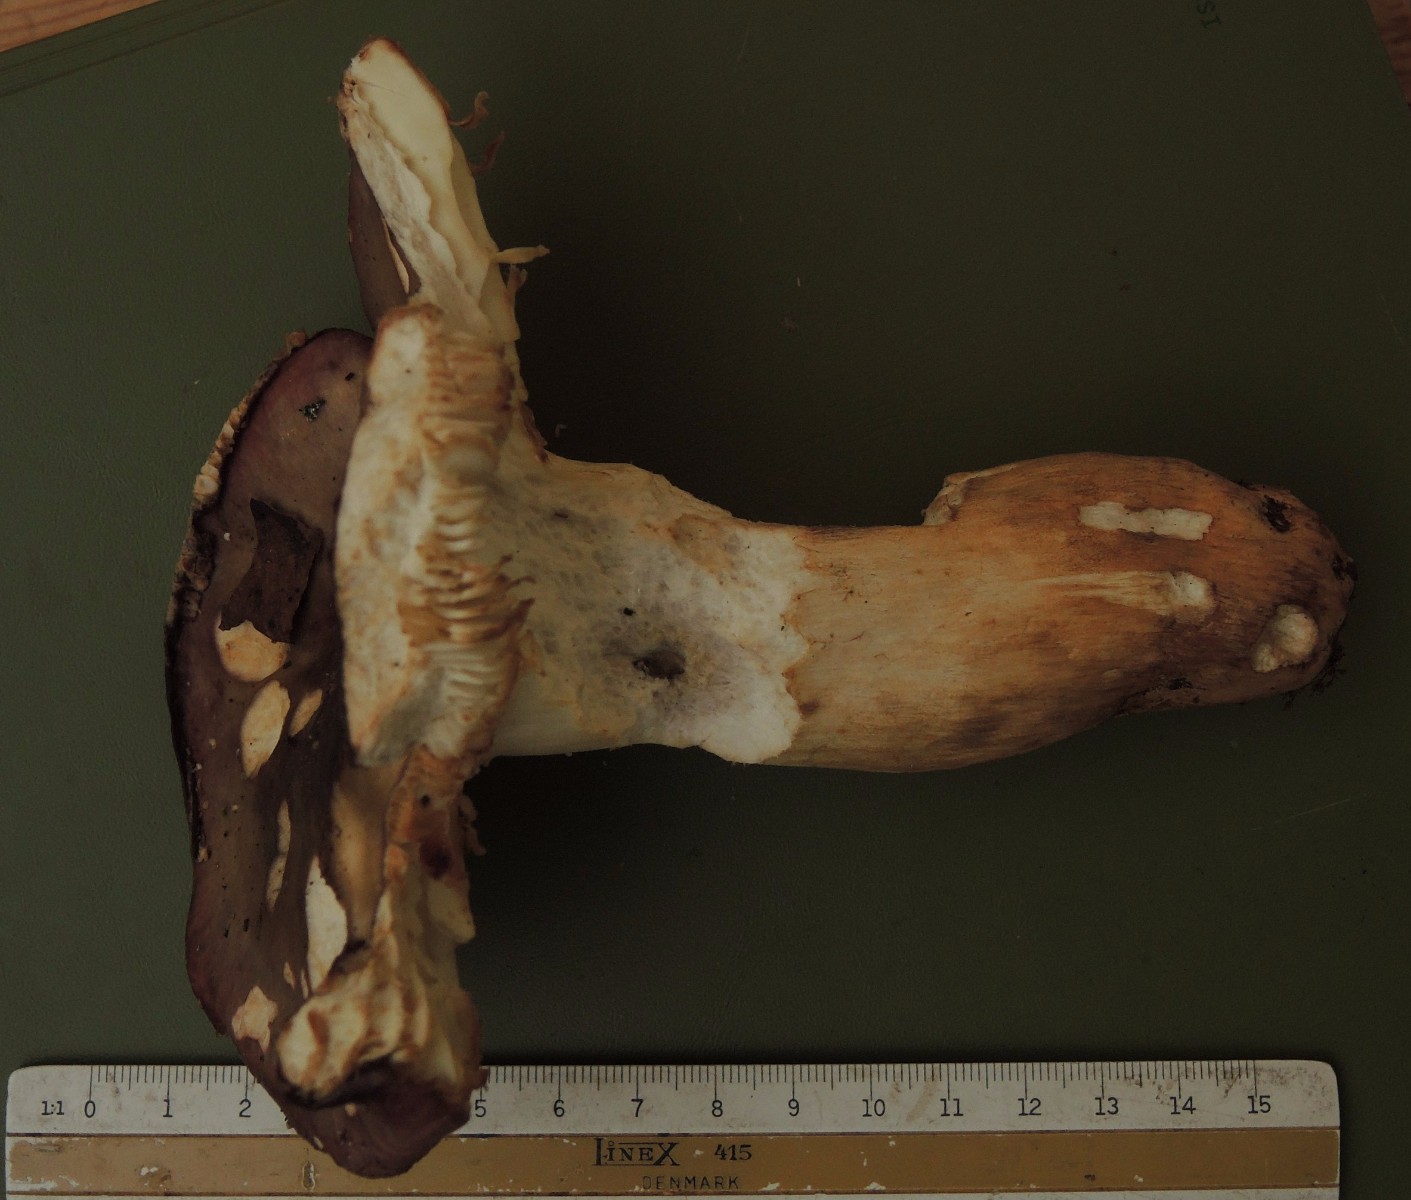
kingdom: Fungi
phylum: Basidiomycota
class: Agaricomycetes
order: Russulales
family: Russulaceae
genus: Russula
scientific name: Russula viscida
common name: knippe-skørhat
